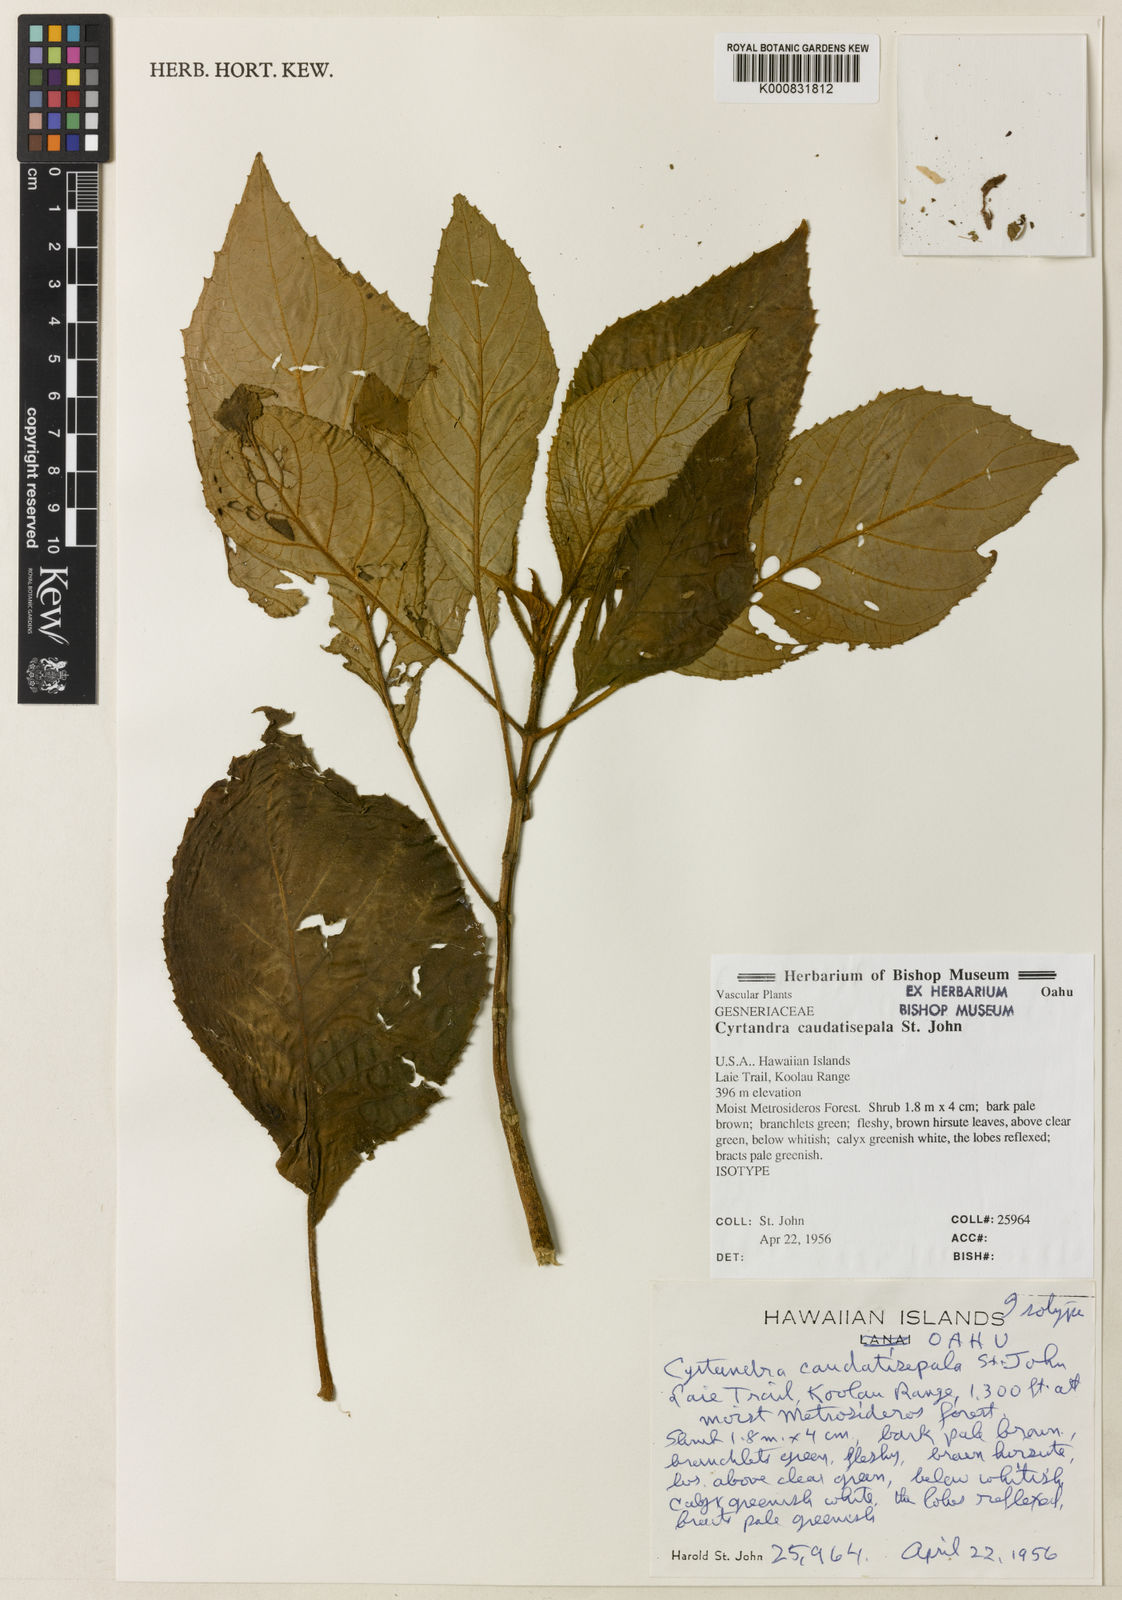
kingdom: Plantae
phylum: Tracheophyta
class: Magnoliopsida
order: Lamiales
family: Gesneriaceae
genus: Cyrtandra
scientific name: Cyrtandra caudatisepala
